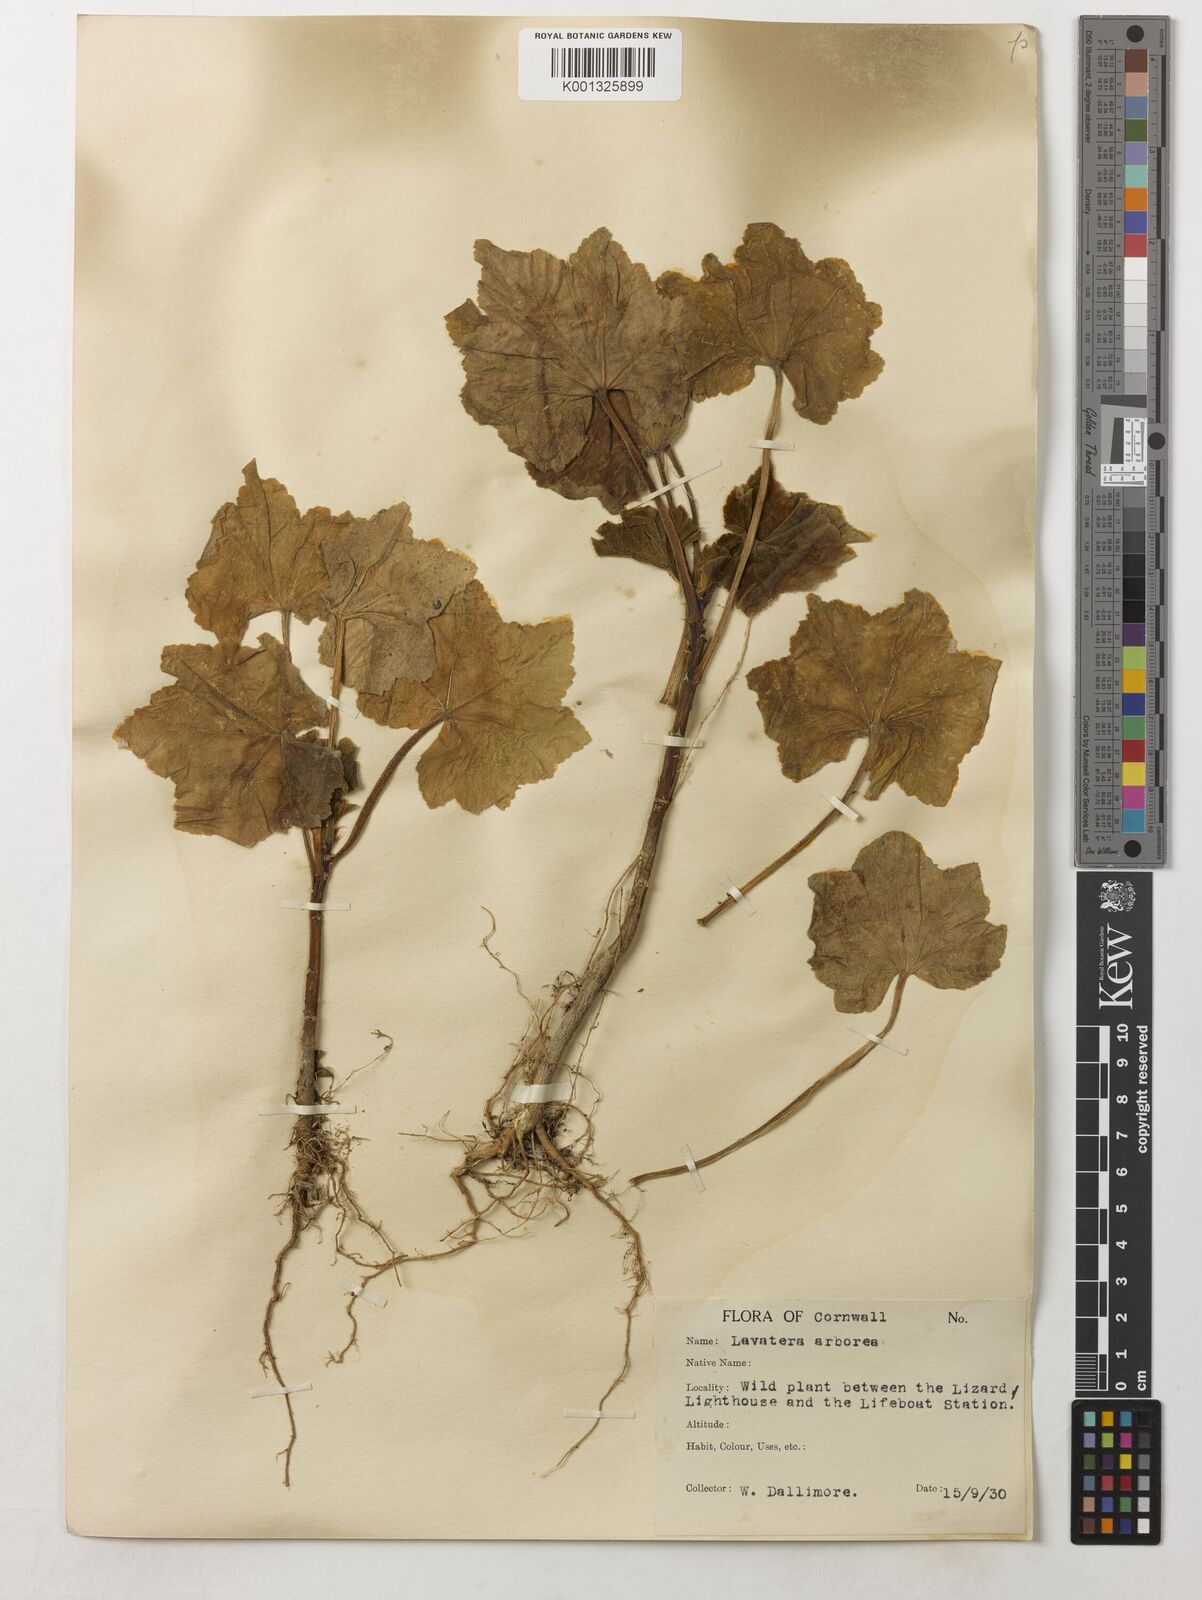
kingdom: Plantae
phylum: Tracheophyta
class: Magnoliopsida
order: Malvales
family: Malvaceae
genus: Malva
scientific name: Malva arborea
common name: Tree mallow
